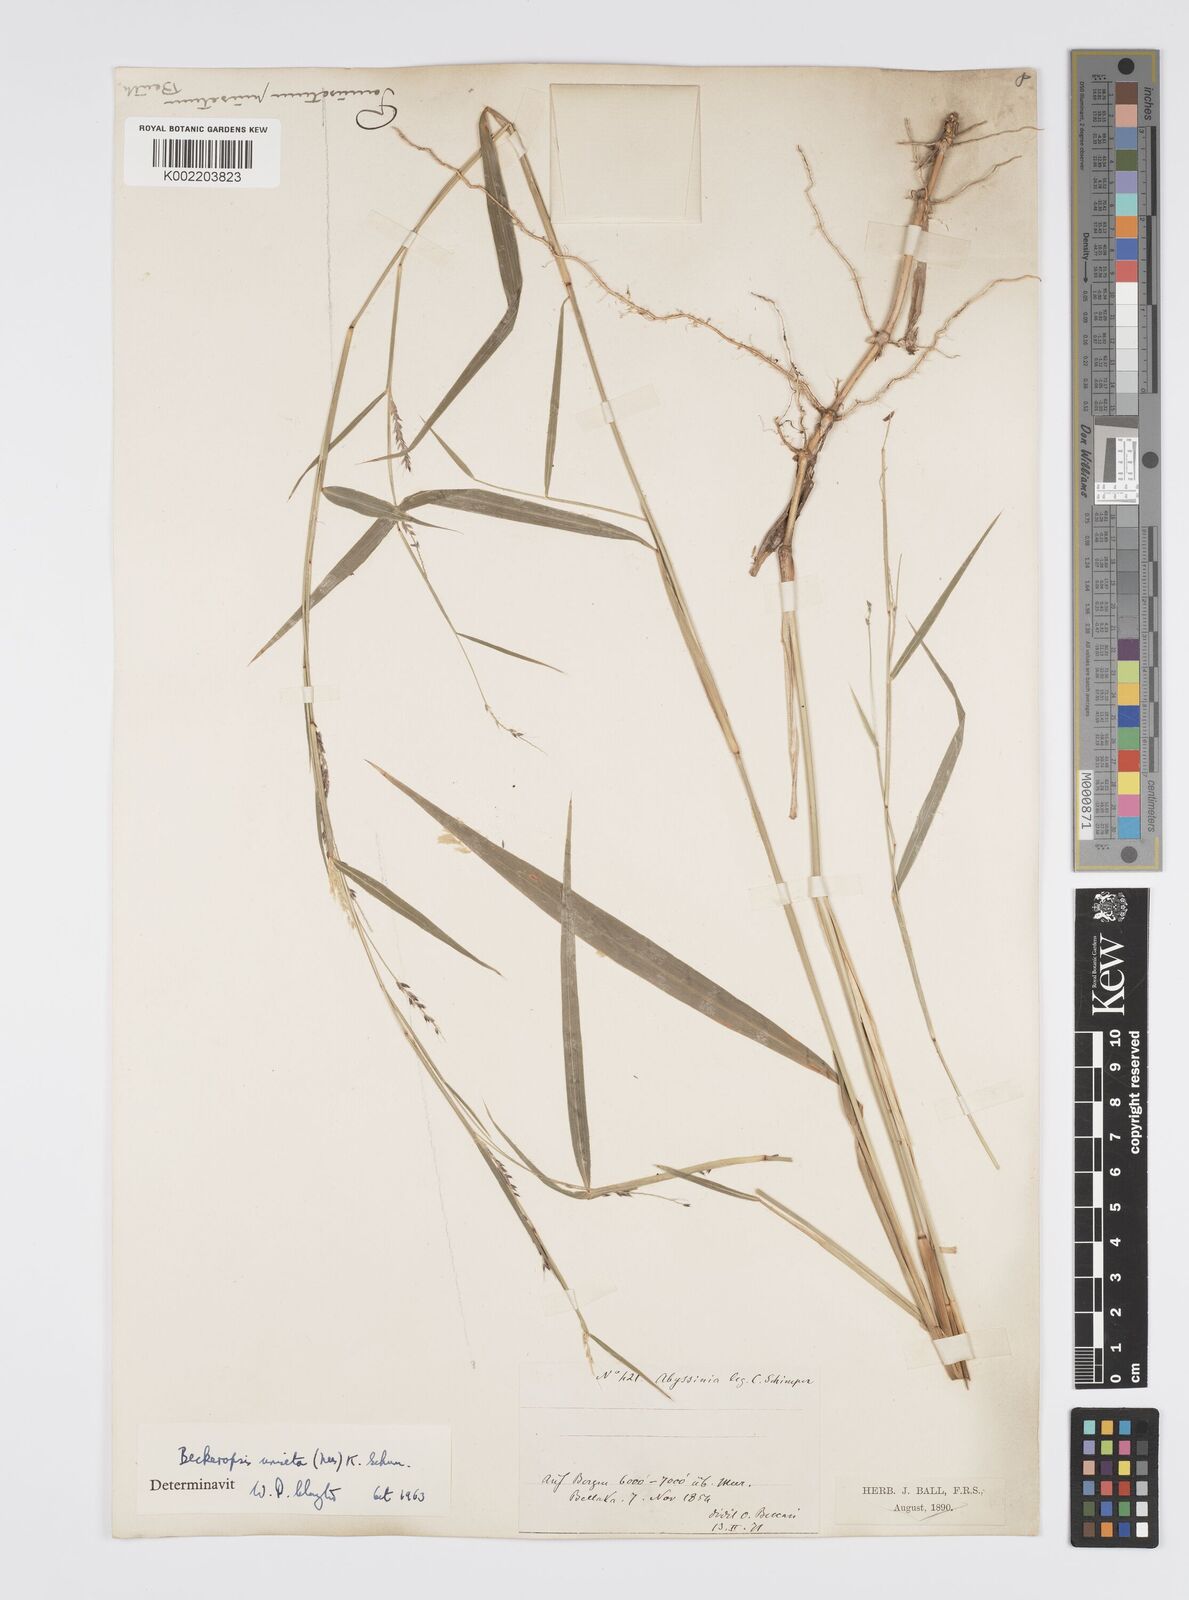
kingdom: Plantae
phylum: Tracheophyta
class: Liliopsida
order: Poales
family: Poaceae
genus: Cenchrus
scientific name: Cenchrus unisetus
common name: Natal grass
